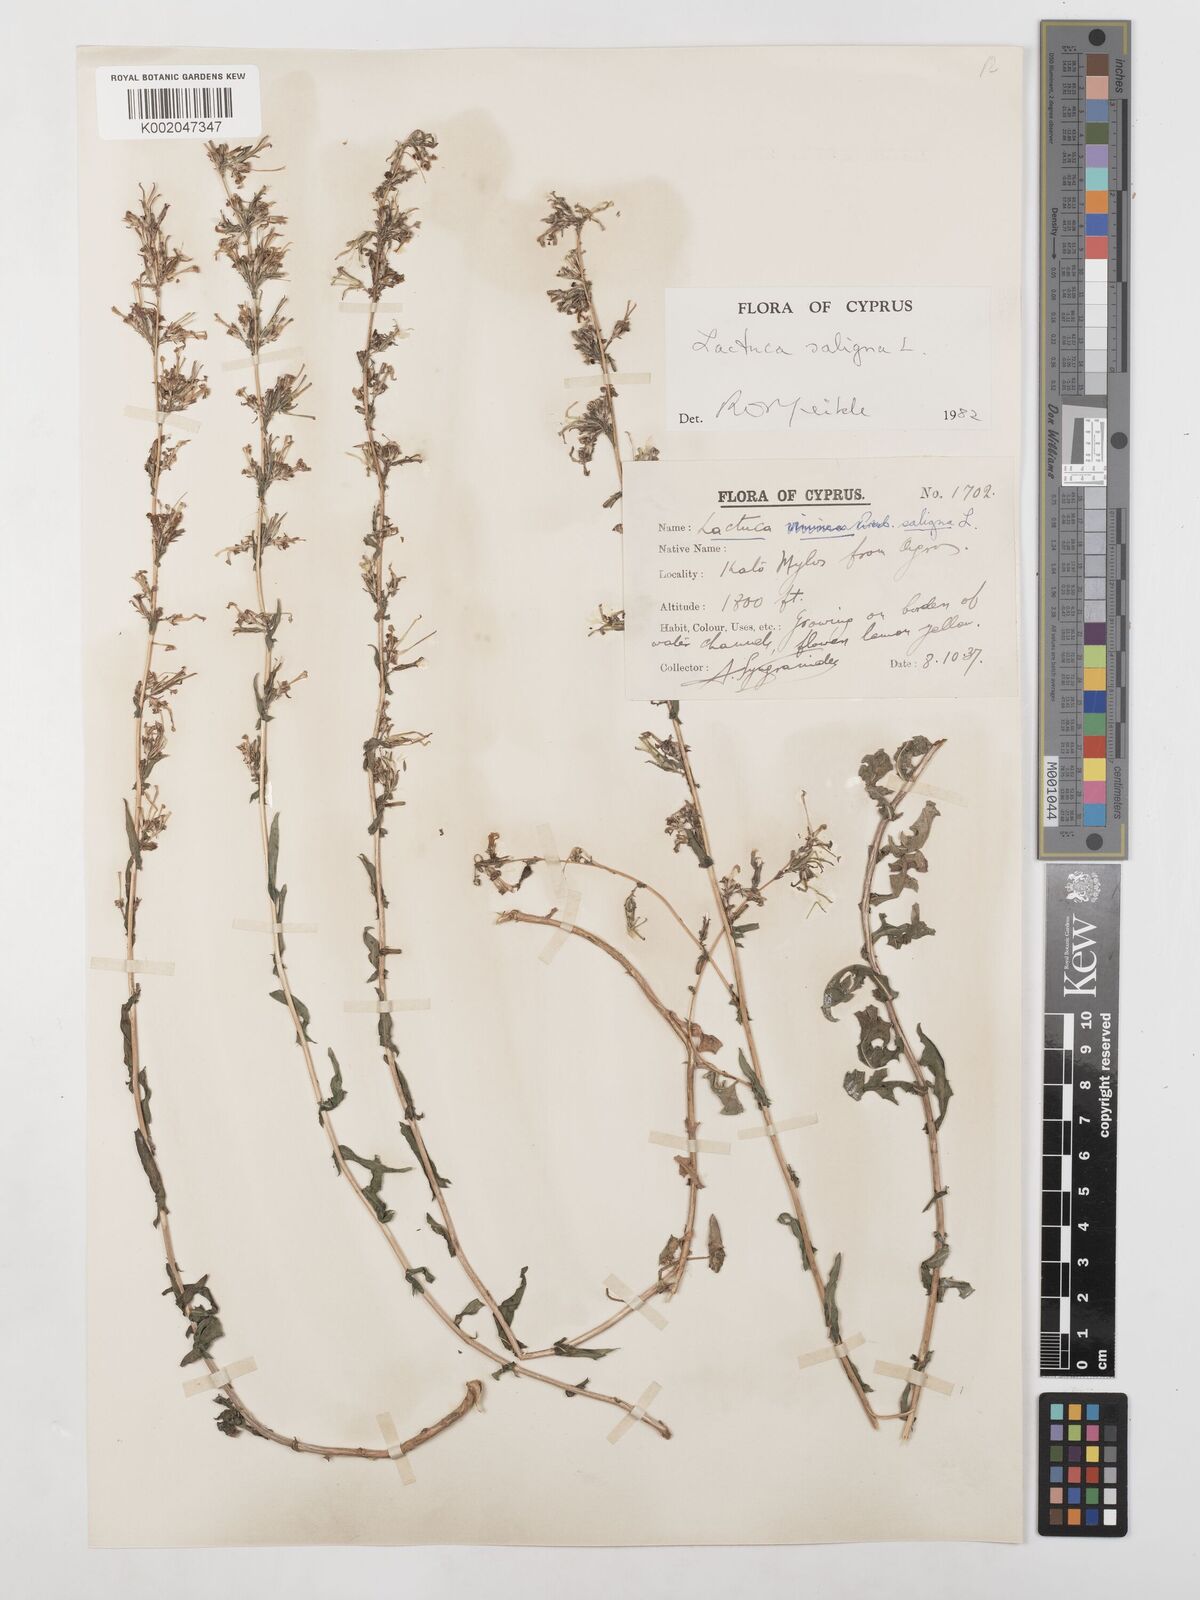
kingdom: Plantae
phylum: Tracheophyta
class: Magnoliopsida
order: Asterales
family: Asteraceae
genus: Lactuca
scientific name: Lactuca saligna
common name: Wild lettuce
